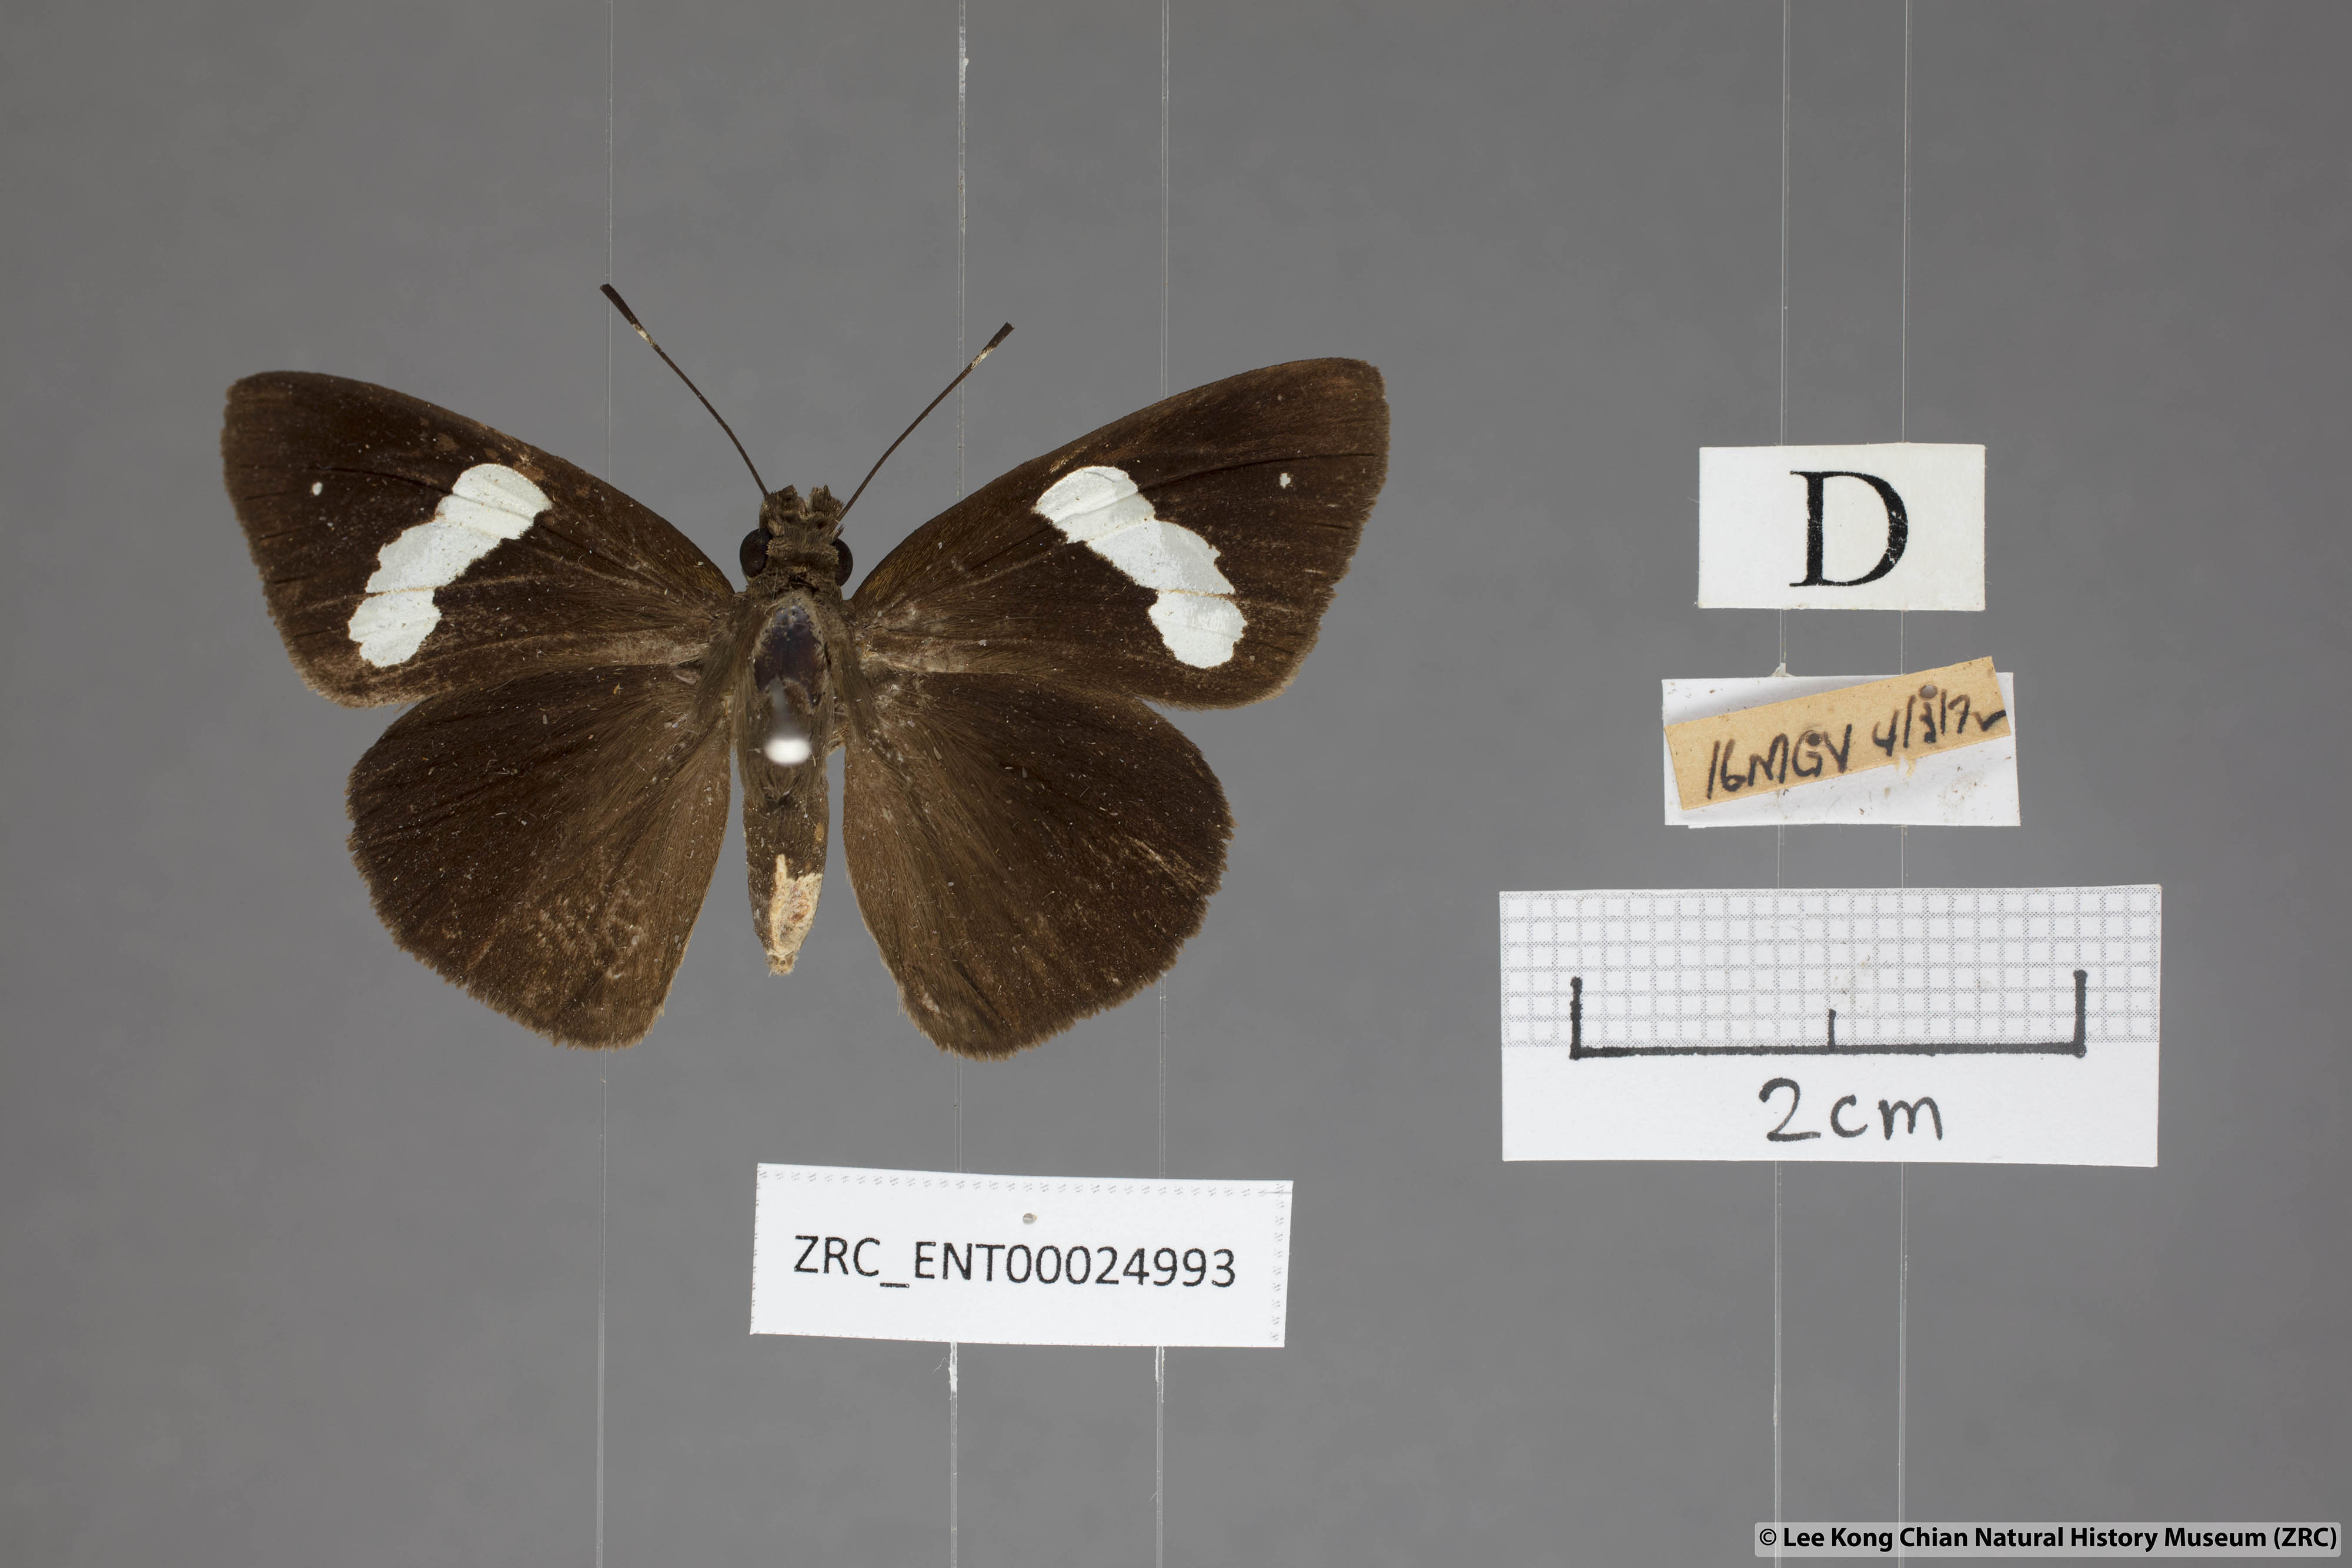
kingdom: Animalia
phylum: Arthropoda
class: Insecta
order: Lepidoptera
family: Hesperiidae
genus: Notocrypta
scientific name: Notocrypta clavata
